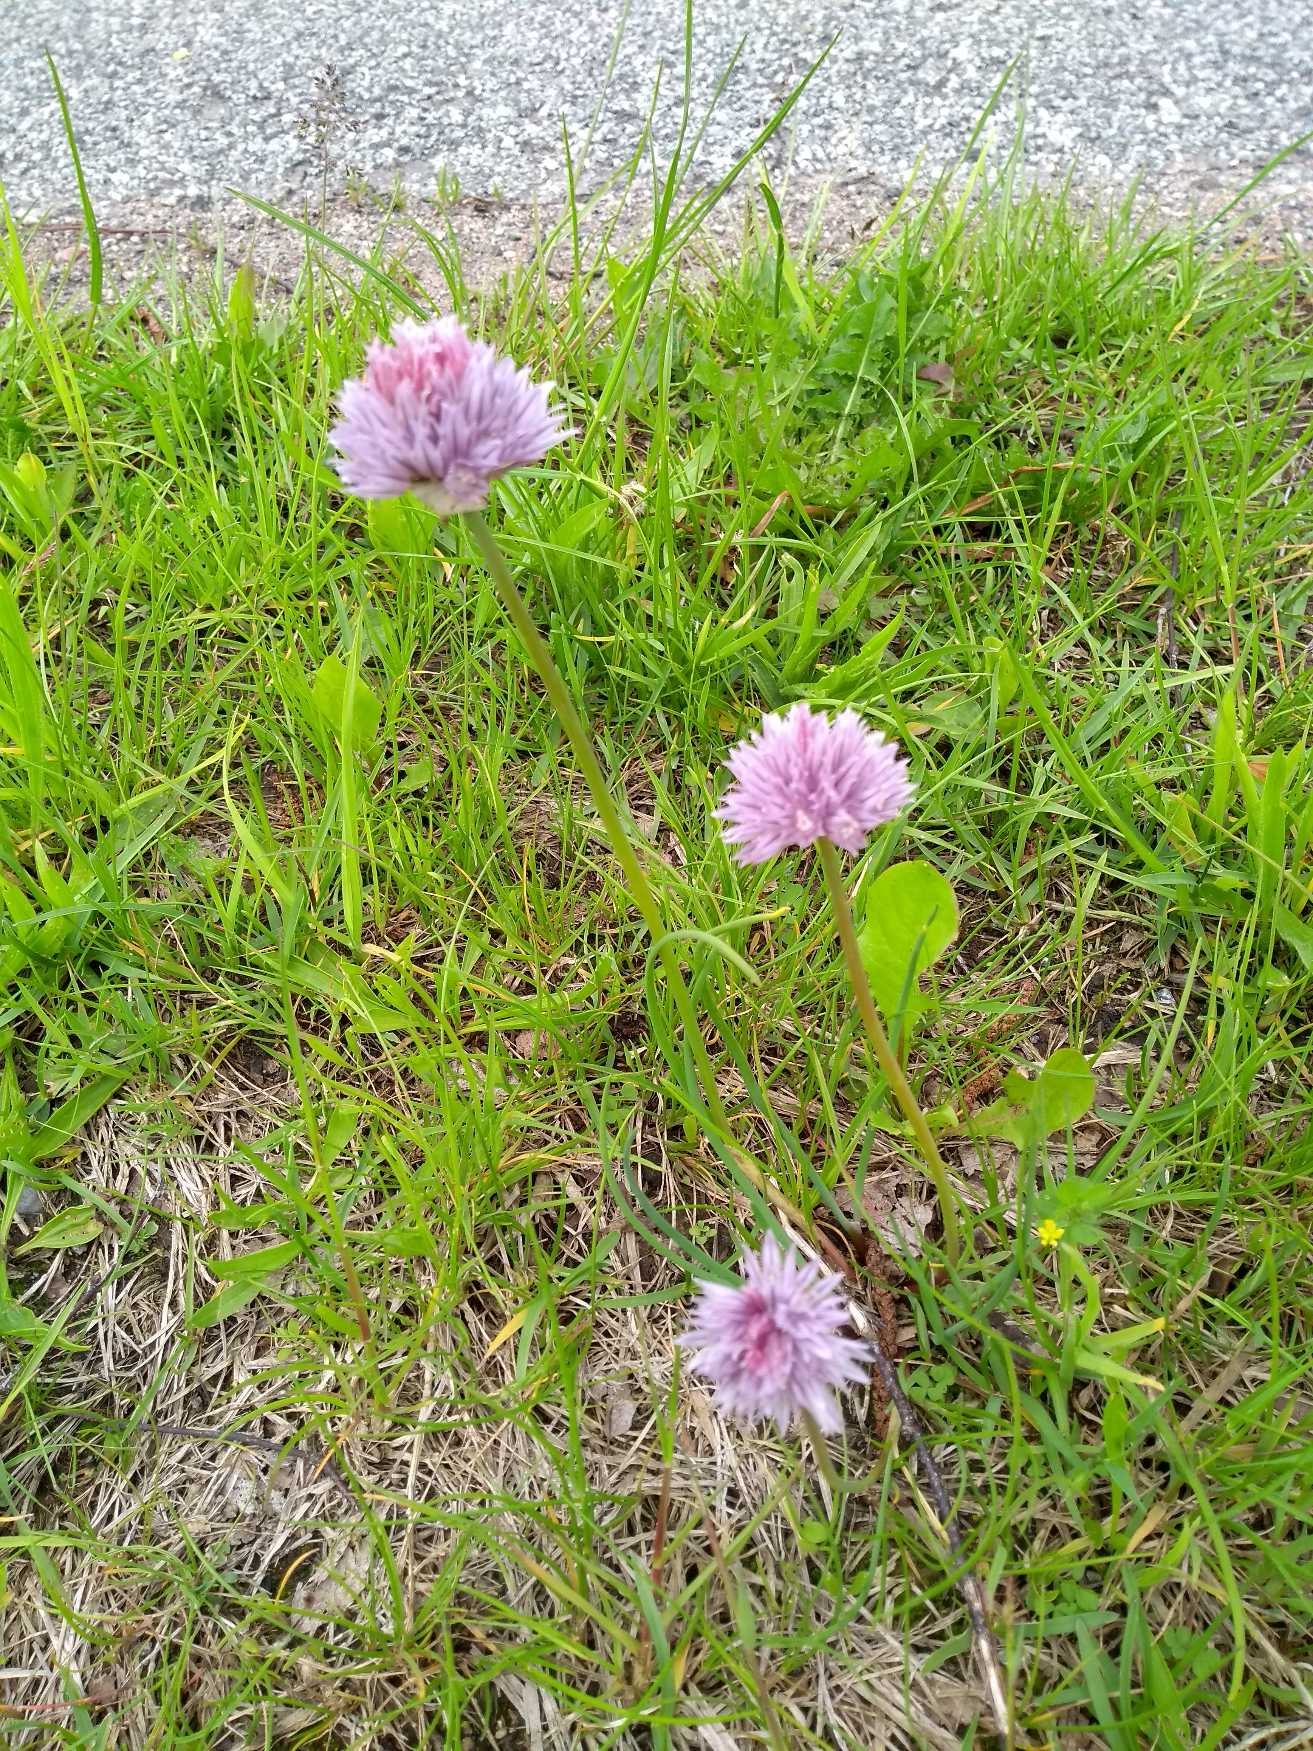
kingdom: Plantae
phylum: Tracheophyta
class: Liliopsida
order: Asparagales
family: Amaryllidaceae
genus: Allium
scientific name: Allium schoenoprasum
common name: Pur-løg
